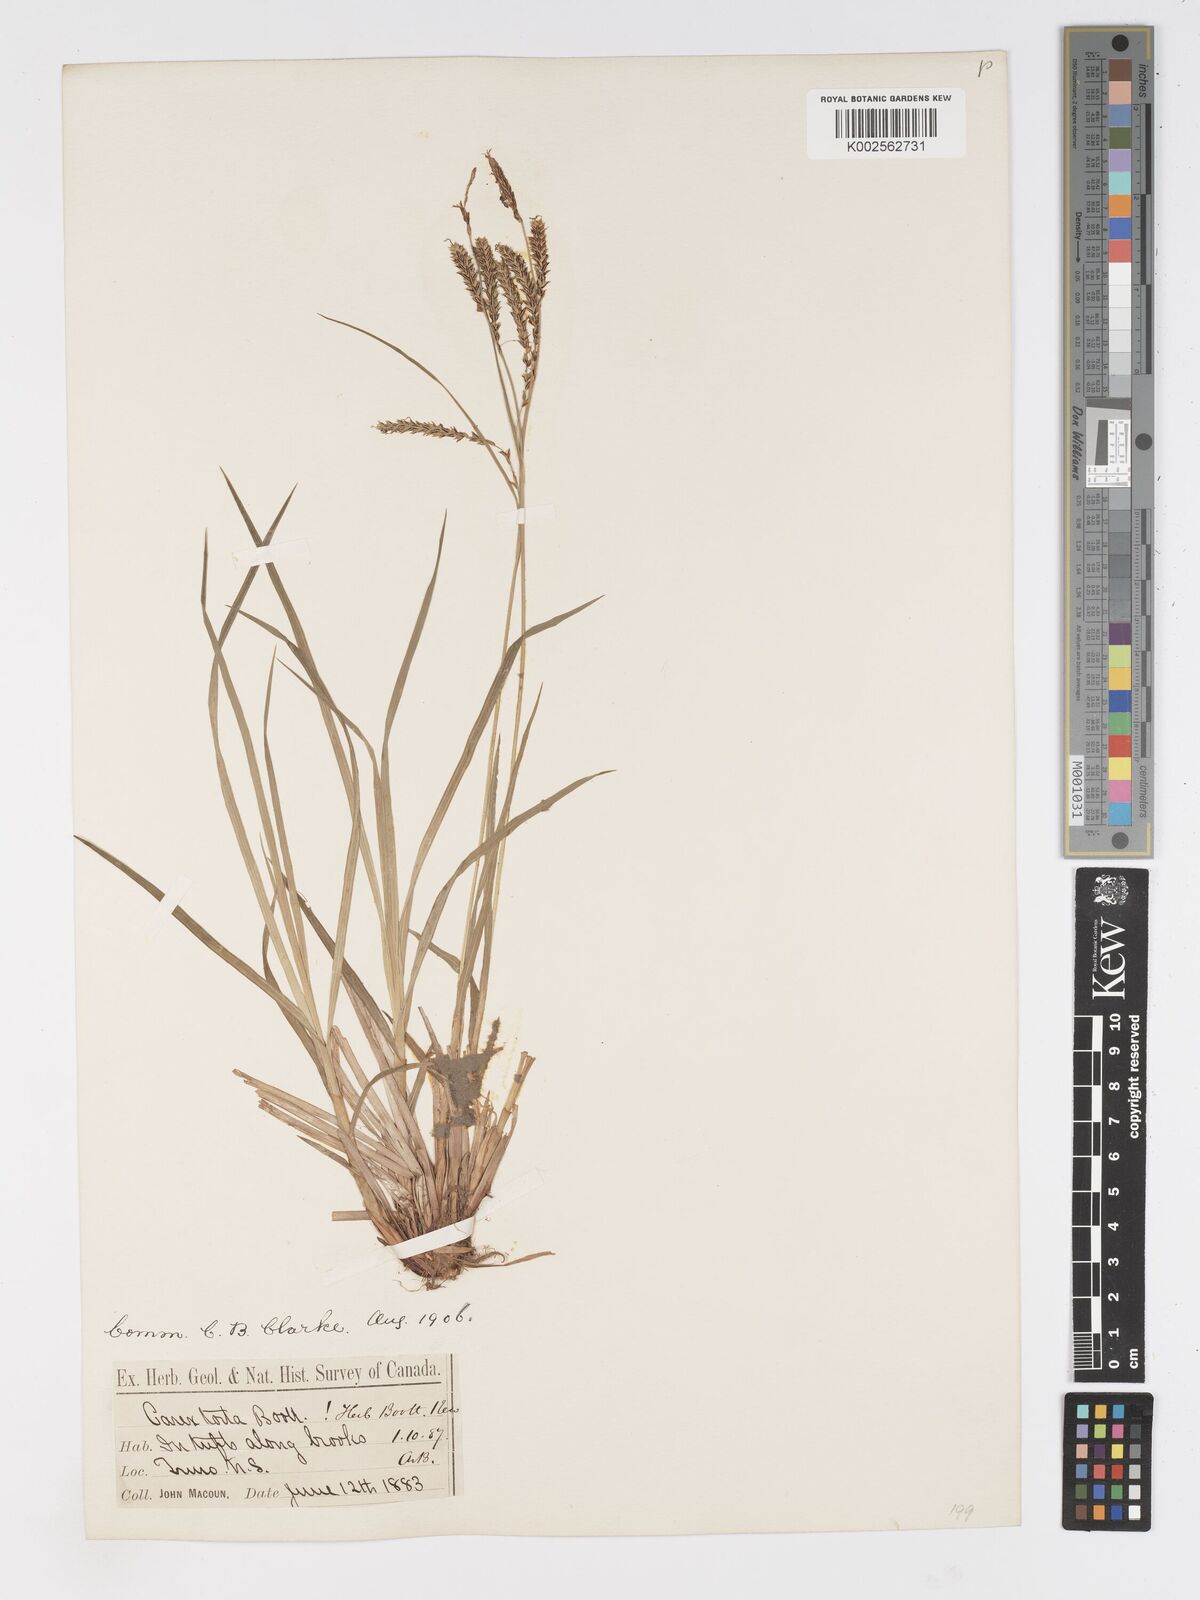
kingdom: Plantae
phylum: Tracheophyta
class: Liliopsida
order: Poales
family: Cyperaceae
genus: Carex
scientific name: Carex torta
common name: Twisted sedge
